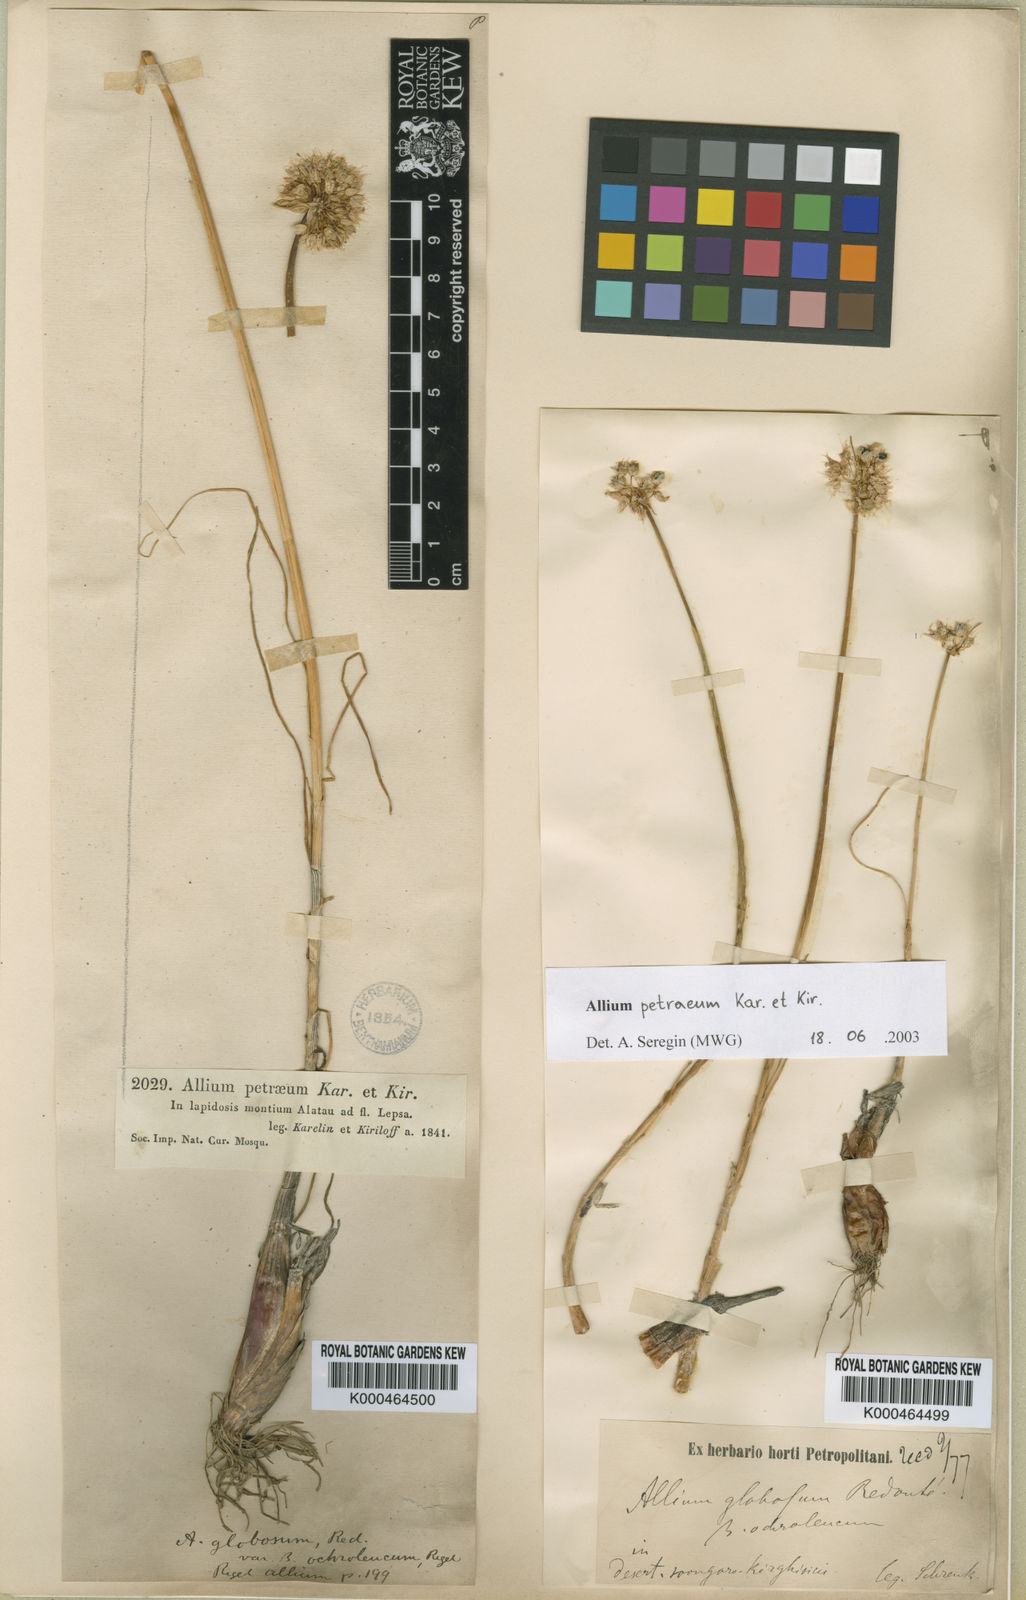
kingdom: Plantae
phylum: Tracheophyta
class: Liliopsida
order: Asparagales
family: Amaryllidaceae
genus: Allium
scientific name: Allium petraeum
